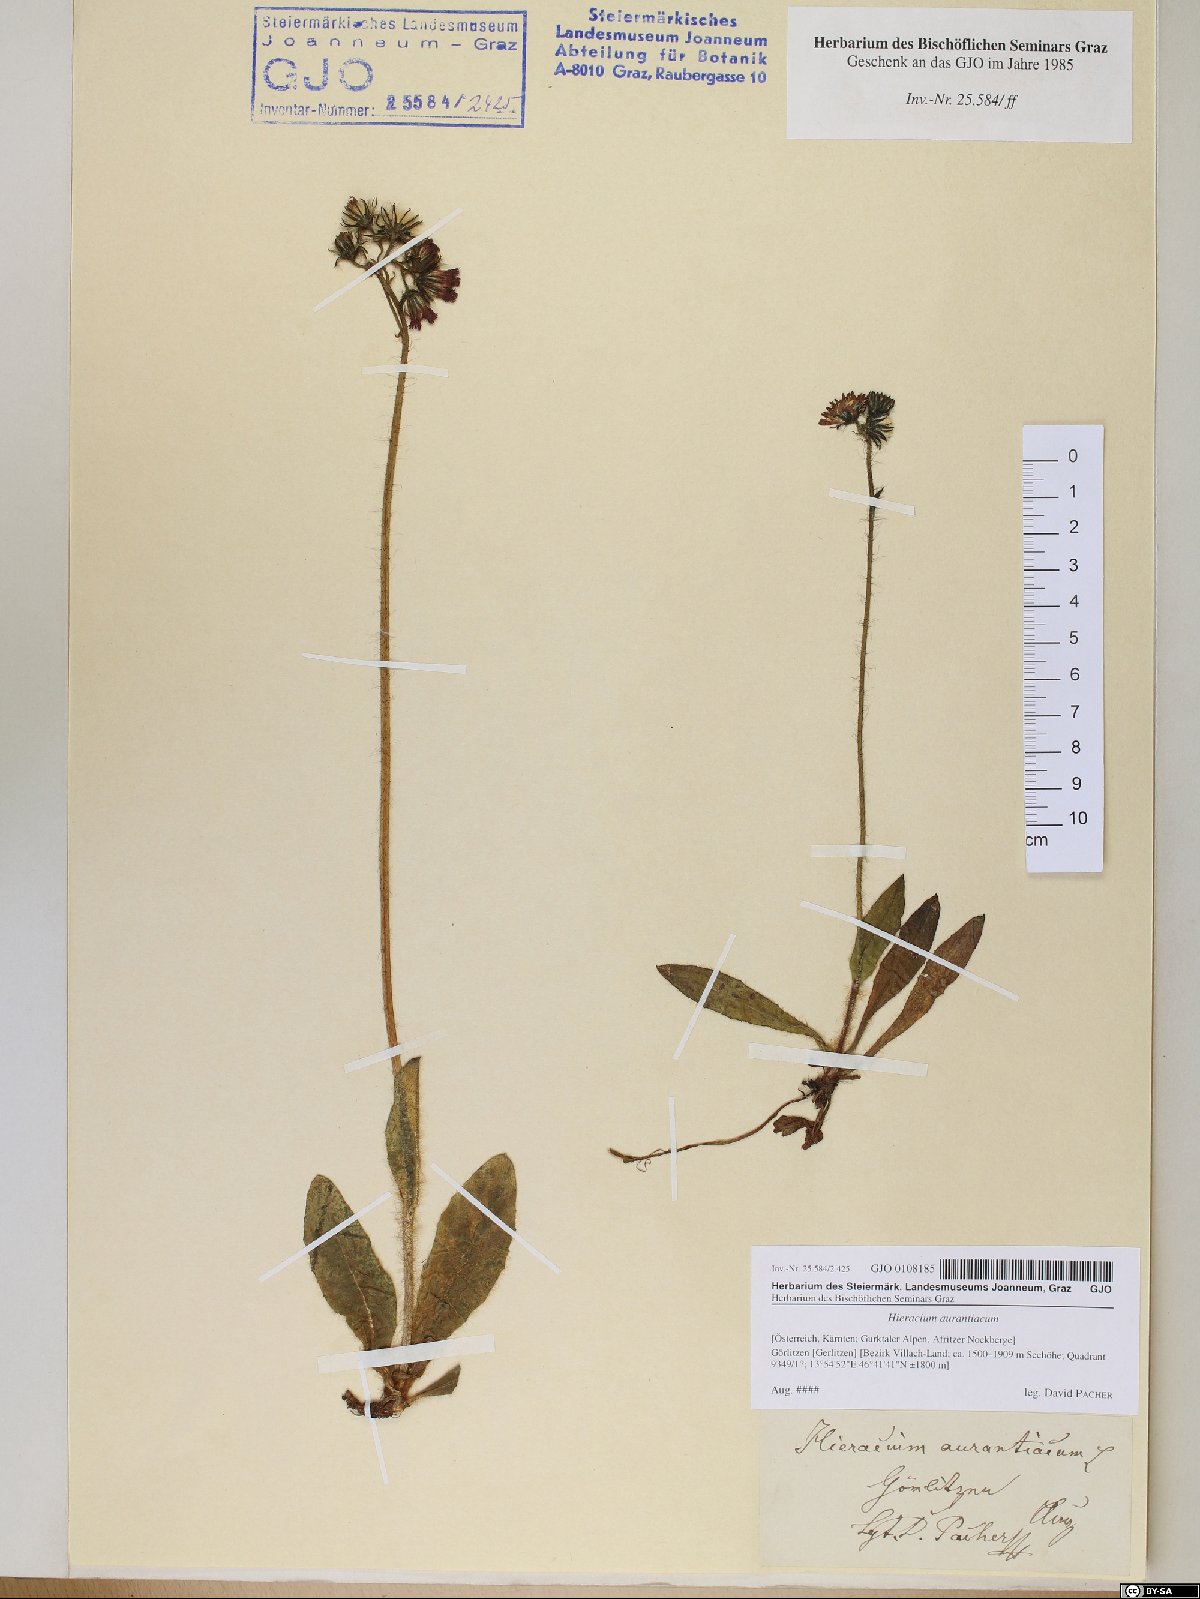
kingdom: Plantae
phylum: Tracheophyta
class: Magnoliopsida
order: Asterales
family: Asteraceae
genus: Pilosella
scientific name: Pilosella aurantiaca
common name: Fox-and-cubs
